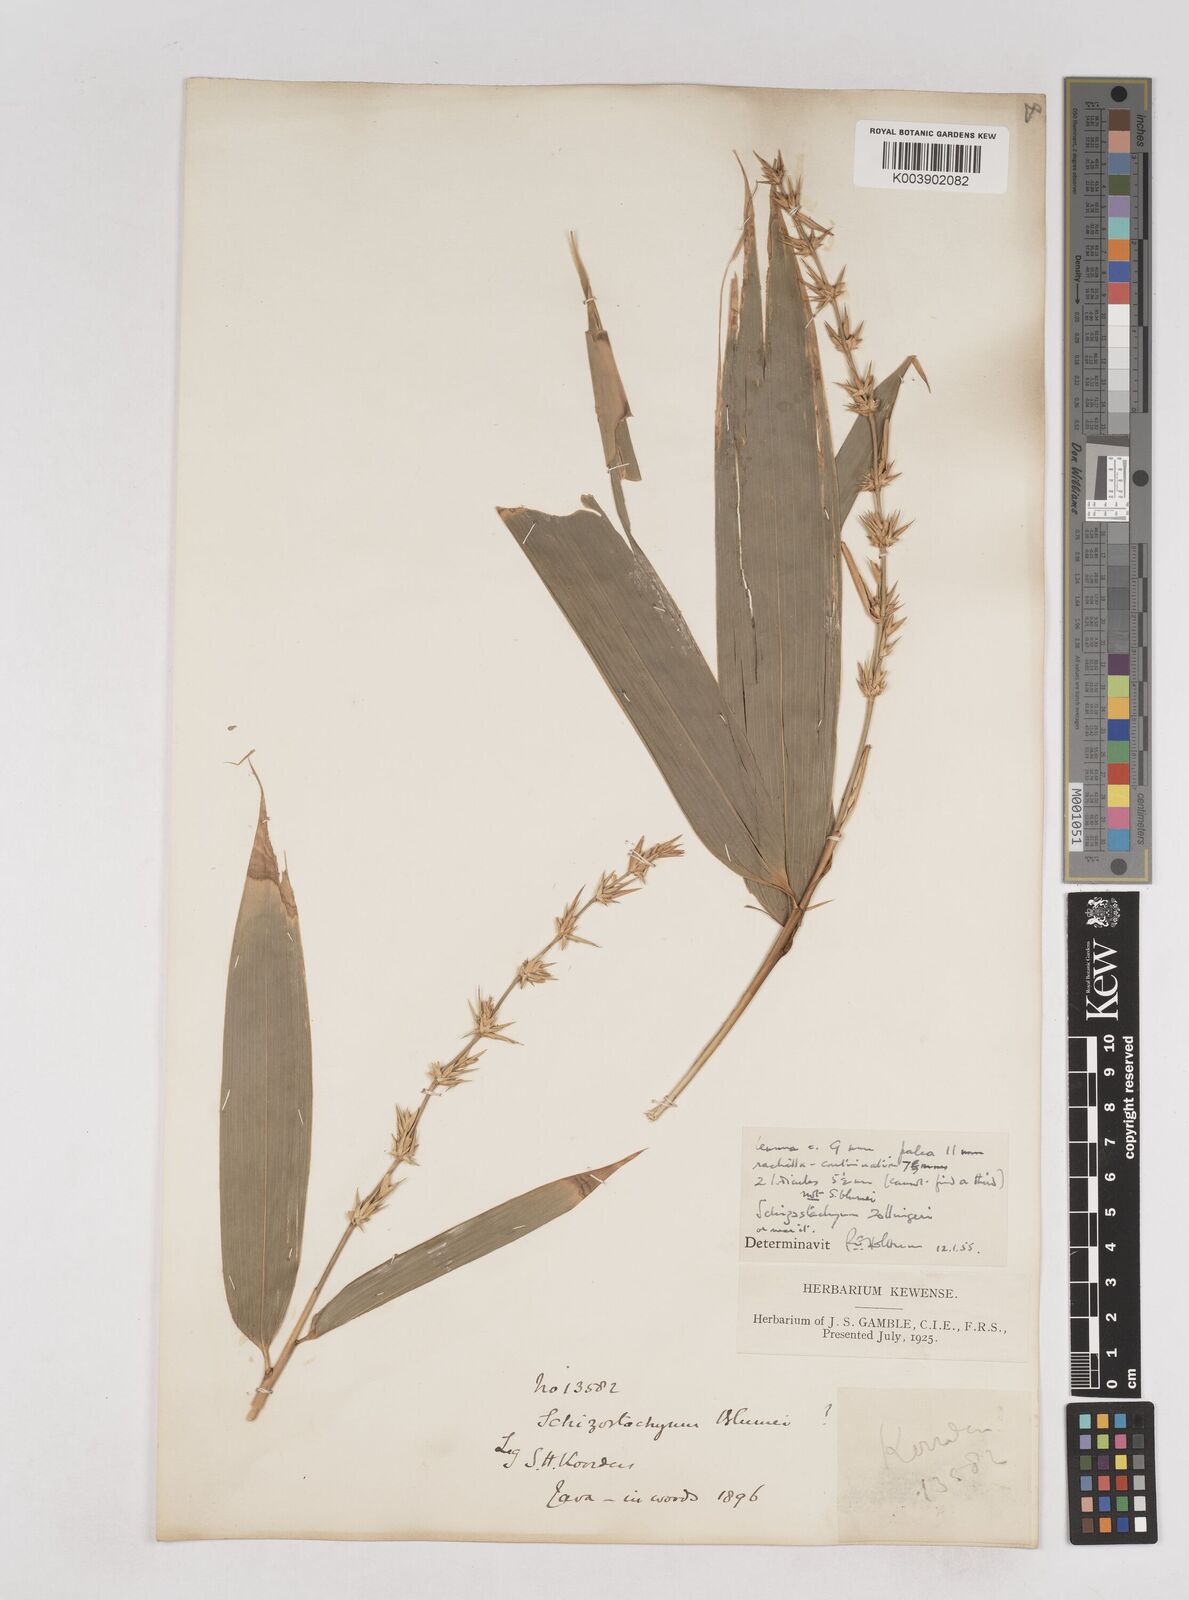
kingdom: Plantae
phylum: Tracheophyta
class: Liliopsida
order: Poales
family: Poaceae
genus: Schizostachyum
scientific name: Schizostachyum
